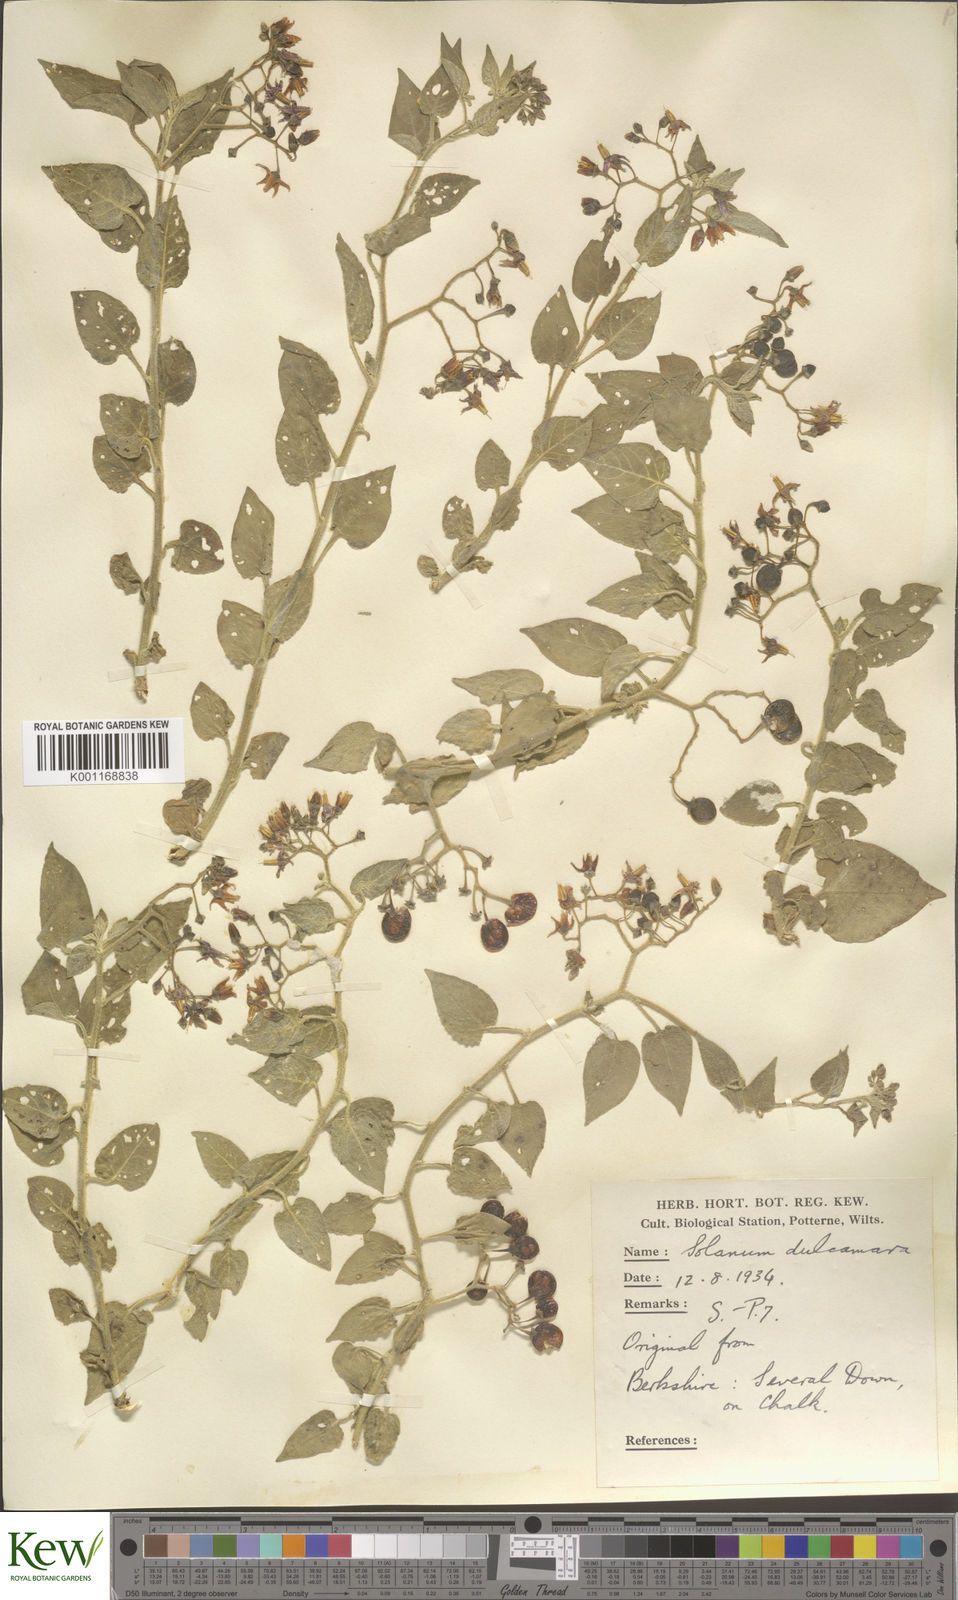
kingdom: Plantae
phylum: Tracheophyta
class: Magnoliopsida
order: Solanales
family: Solanaceae
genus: Solanum
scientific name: Solanum dulcamara
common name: Climbing nightshade
